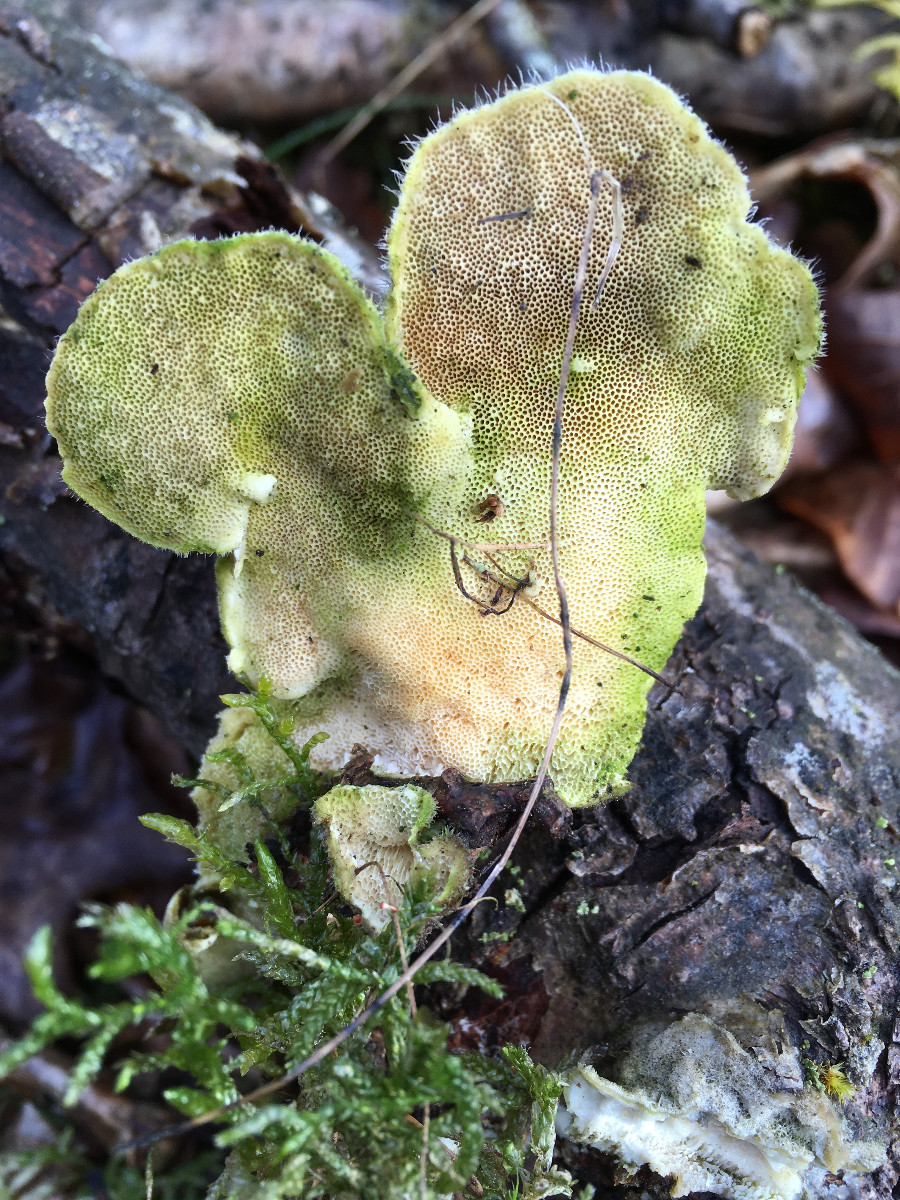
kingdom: Fungi
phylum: Basidiomycota
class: Agaricomycetes
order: Polyporales
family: Polyporaceae
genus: Trametes
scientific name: Trametes hirsuta
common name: håret læderporesvamp
